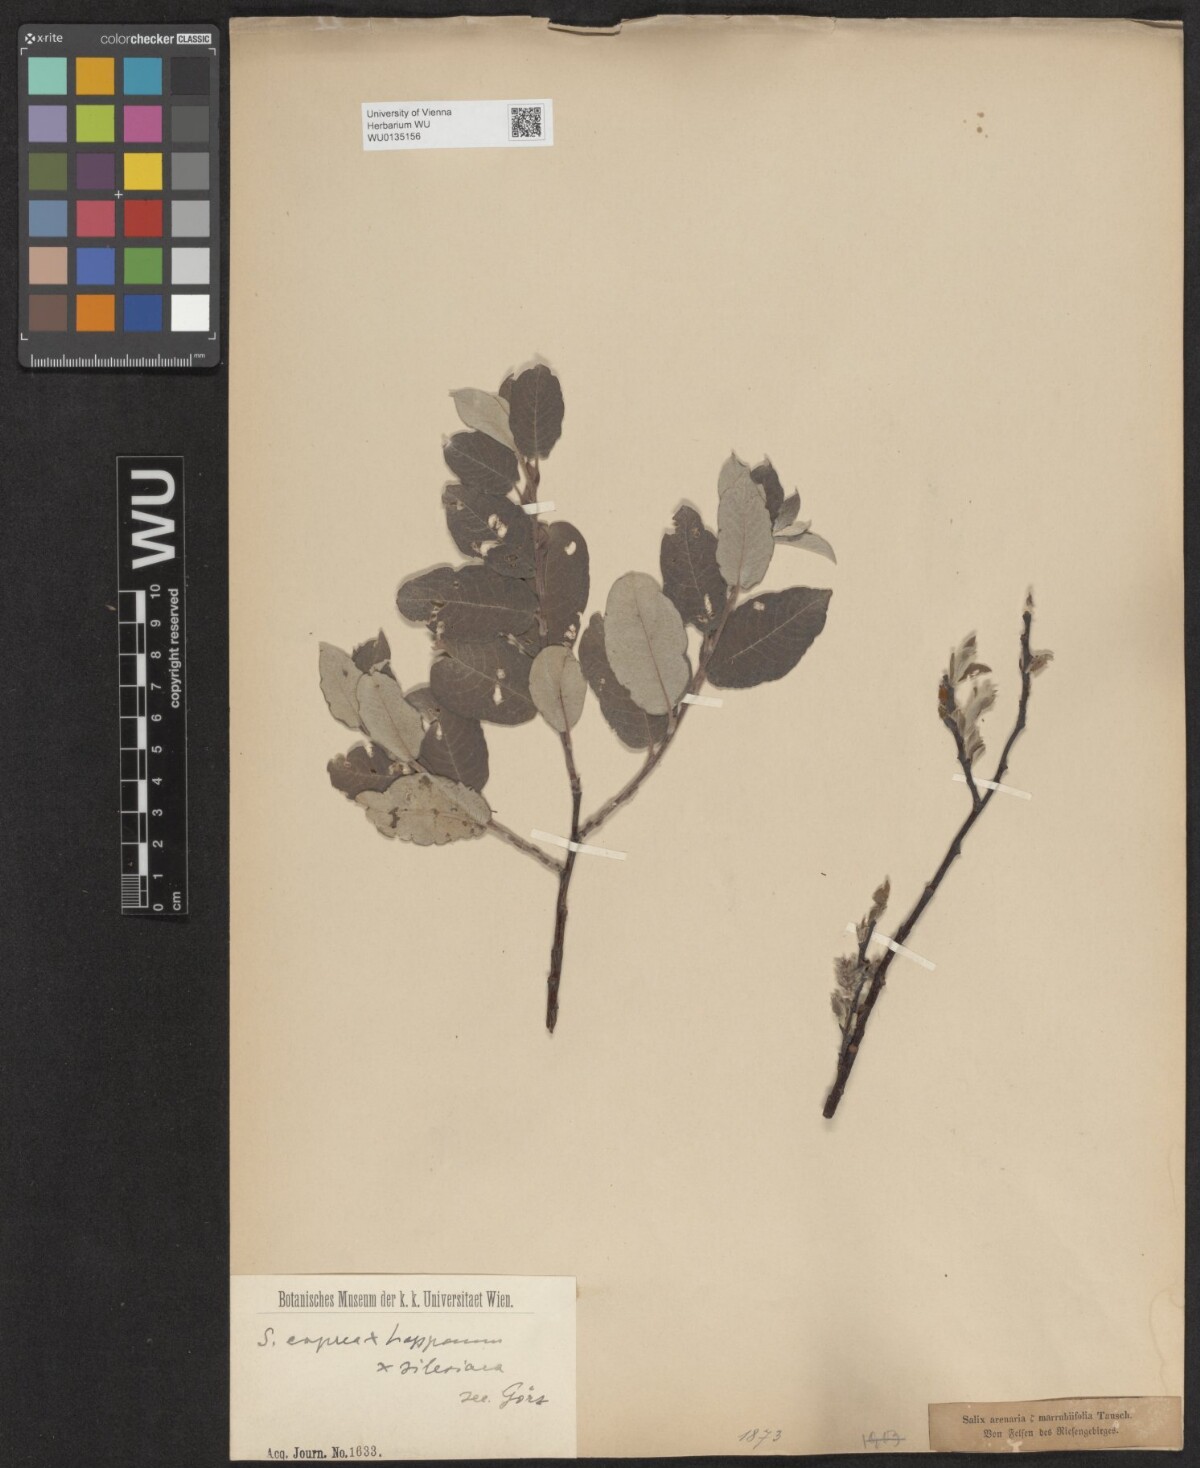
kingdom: Plantae
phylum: Tracheophyta
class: Magnoliopsida
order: Malpighiales
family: Salicaceae
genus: Salix
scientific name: Salix
